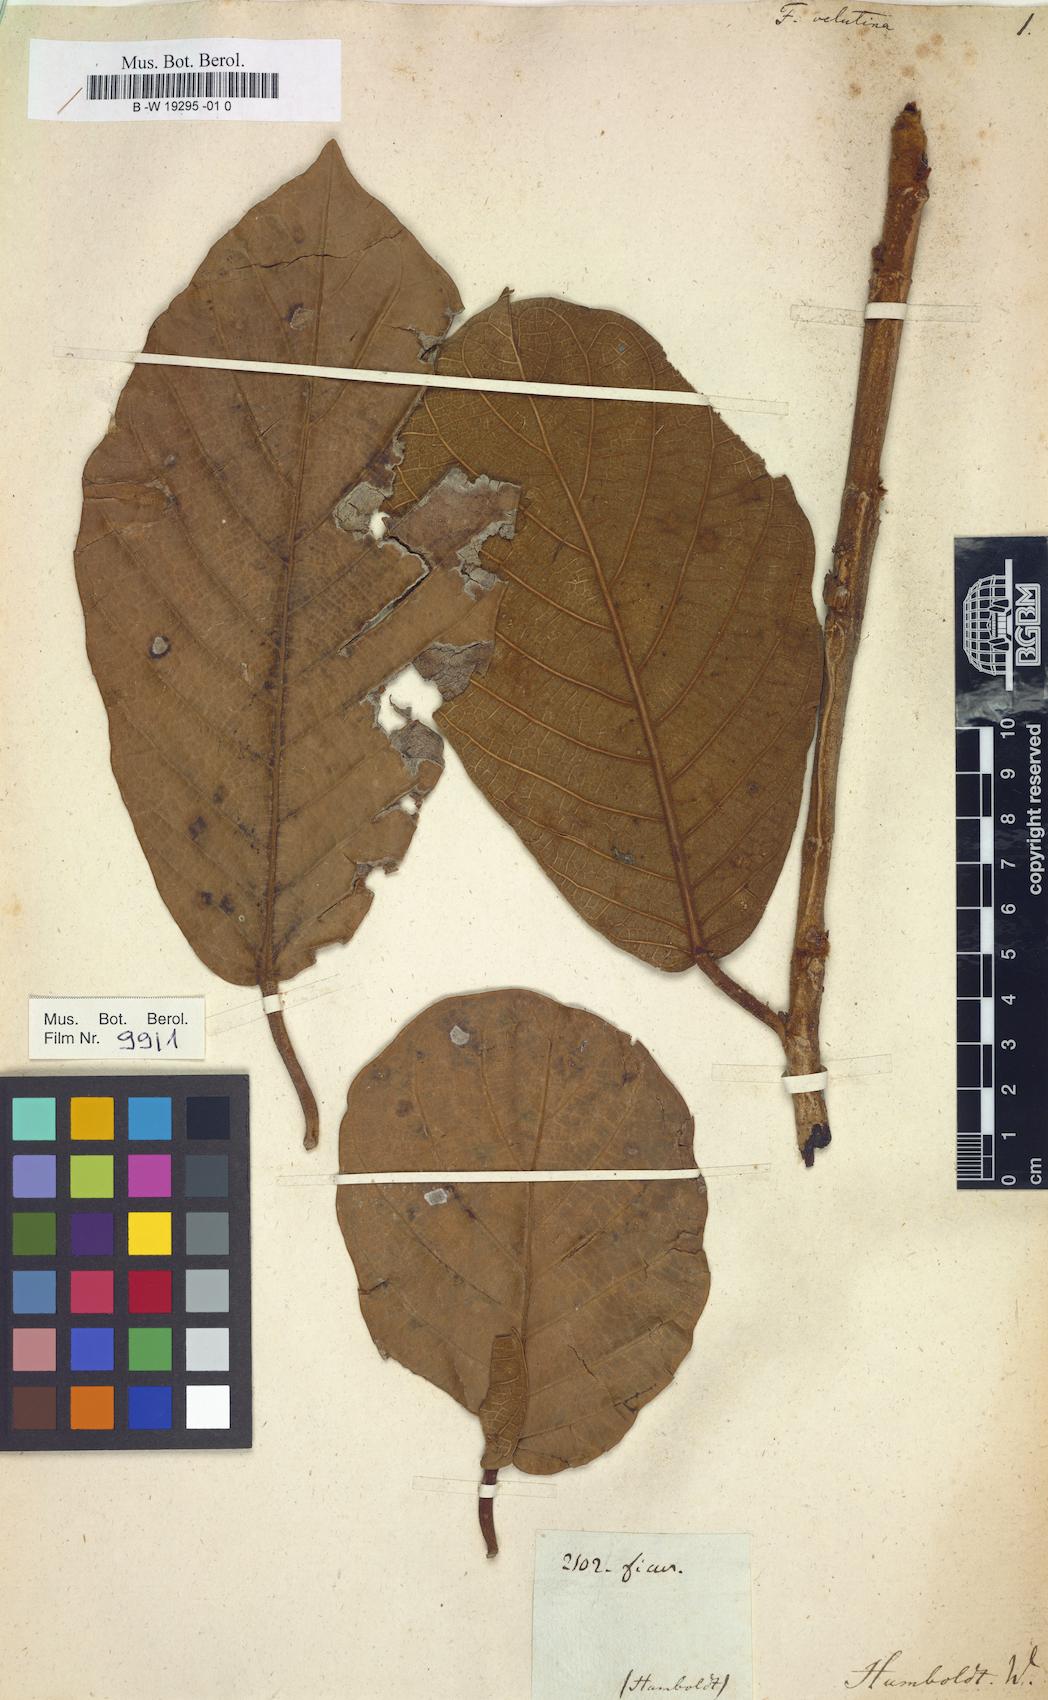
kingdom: Plantae
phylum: Tracheophyta
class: Magnoliopsida
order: Rosales
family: Moraceae
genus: Ficus
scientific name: Ficus velutina
